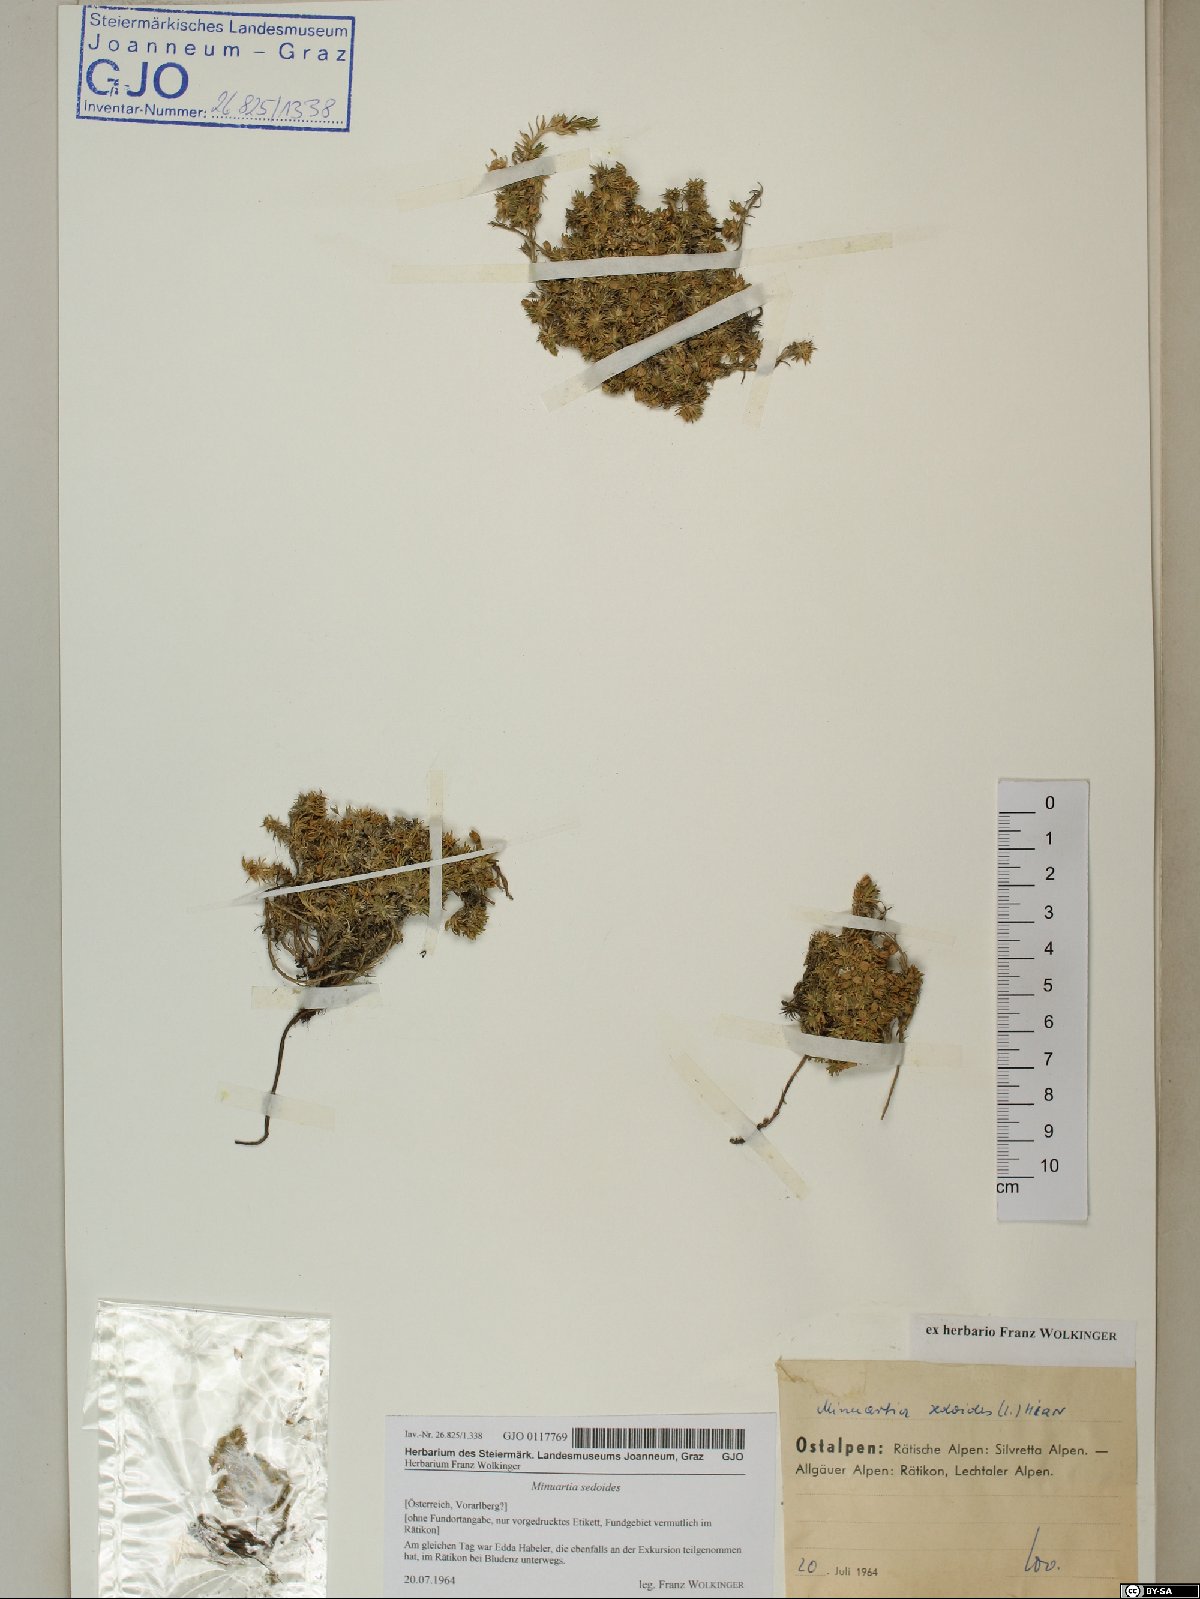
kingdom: Plantae
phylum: Tracheophyta
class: Magnoliopsida
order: Caryophyllales
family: Caryophyllaceae
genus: Cherleria
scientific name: Cherleria sedoides
